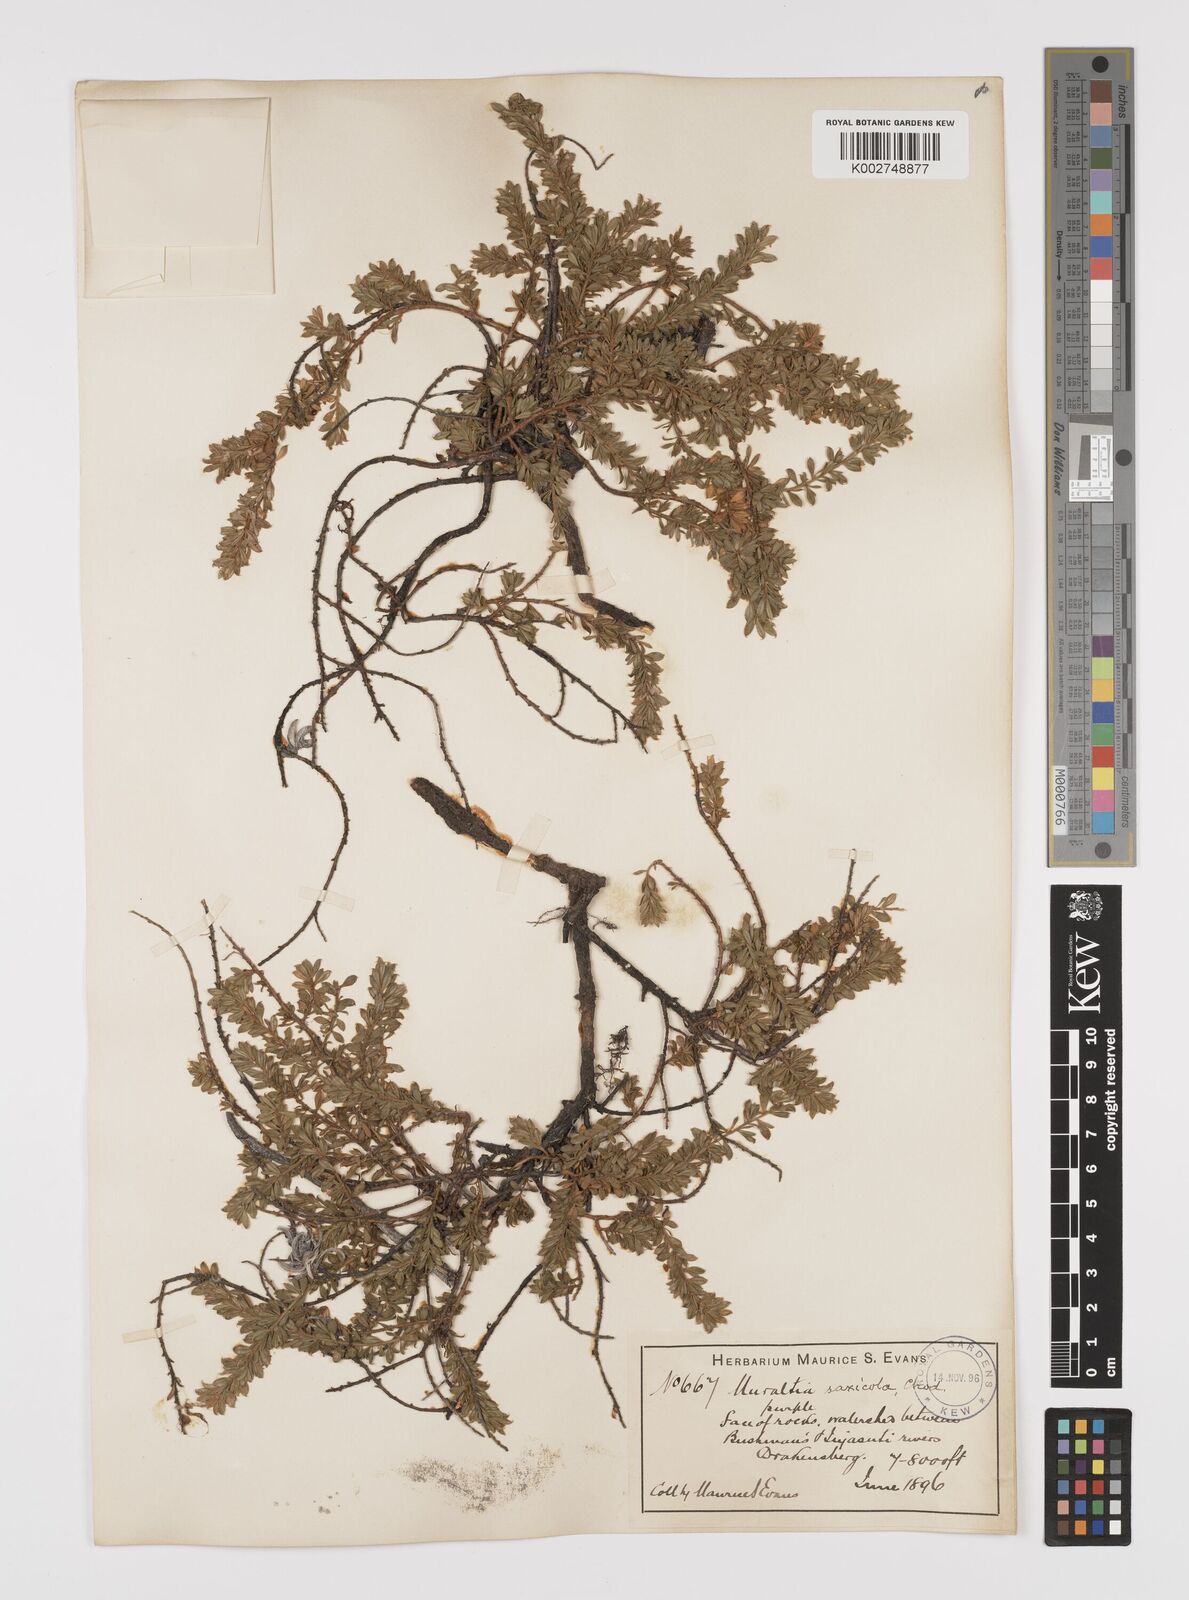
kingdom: Plantae
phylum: Tracheophyta
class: Magnoliopsida
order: Fabales
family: Polygalaceae
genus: Muraltia
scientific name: Muraltia saxicola
